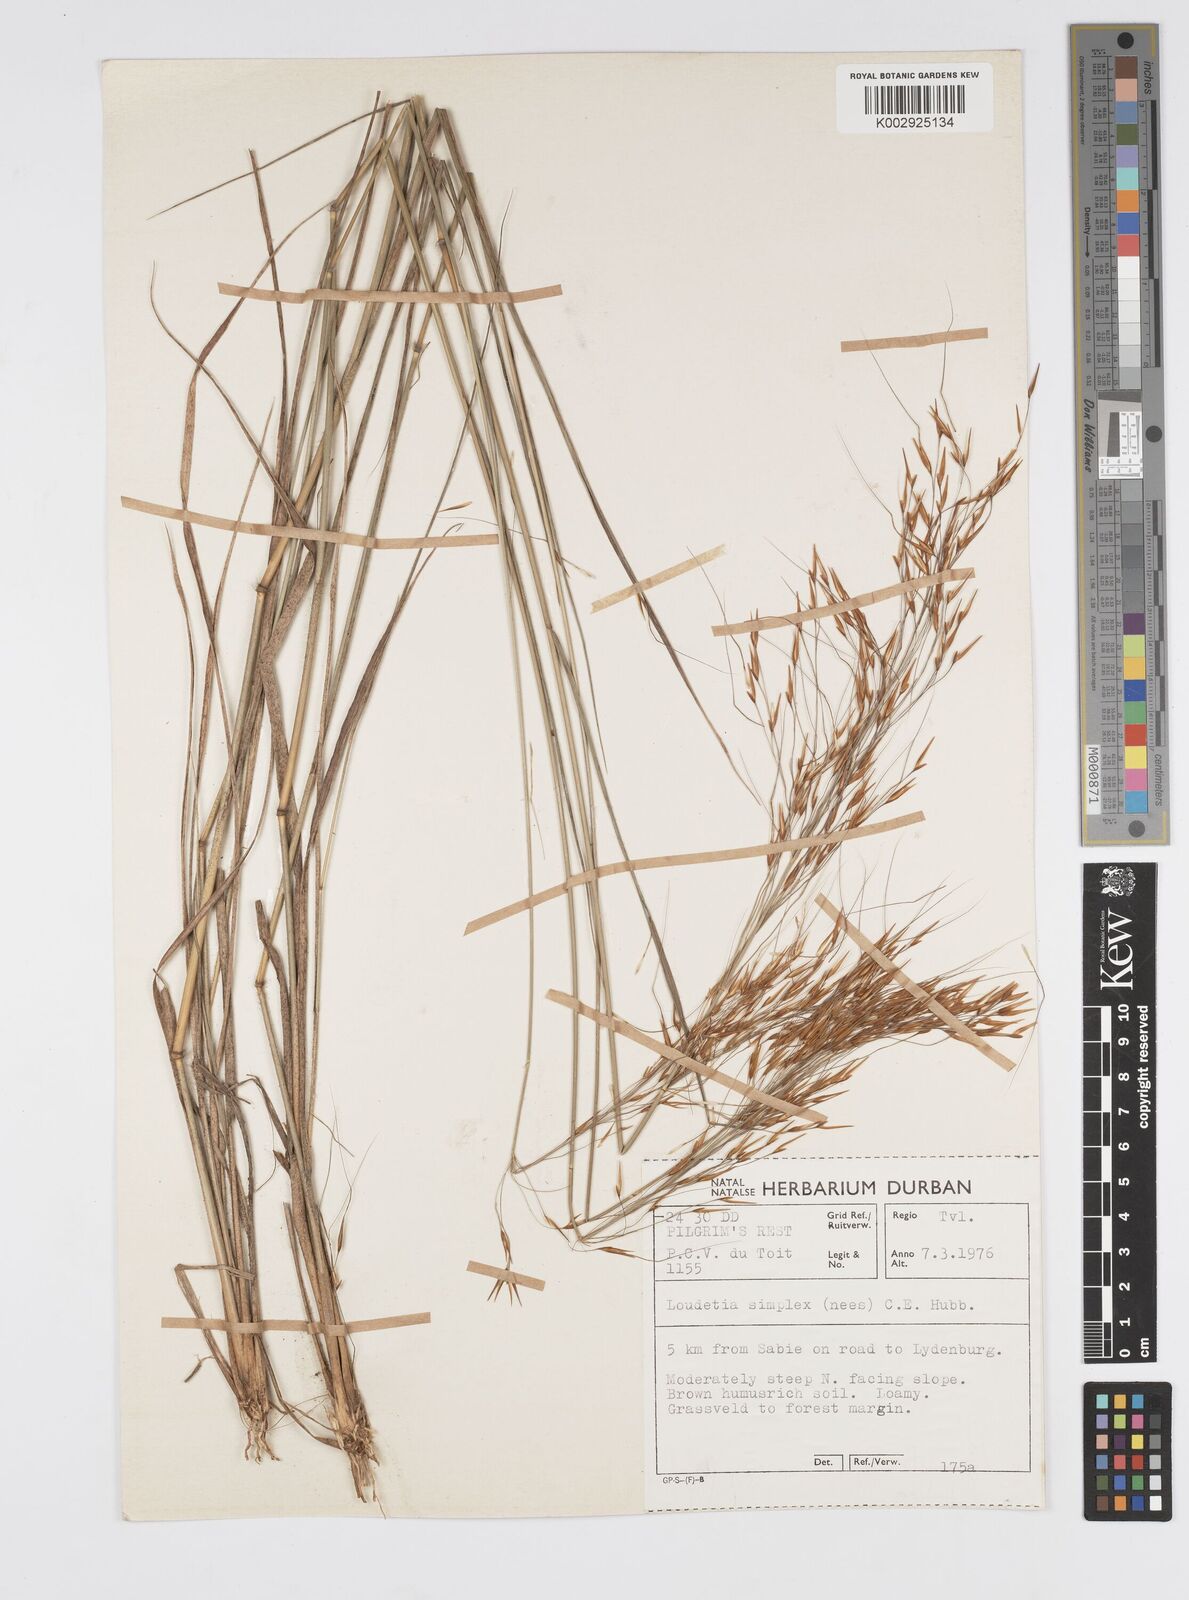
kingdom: Plantae
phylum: Tracheophyta
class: Liliopsida
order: Poales
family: Poaceae
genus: Loudetia
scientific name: Loudetia simplex
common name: Common russet grass
